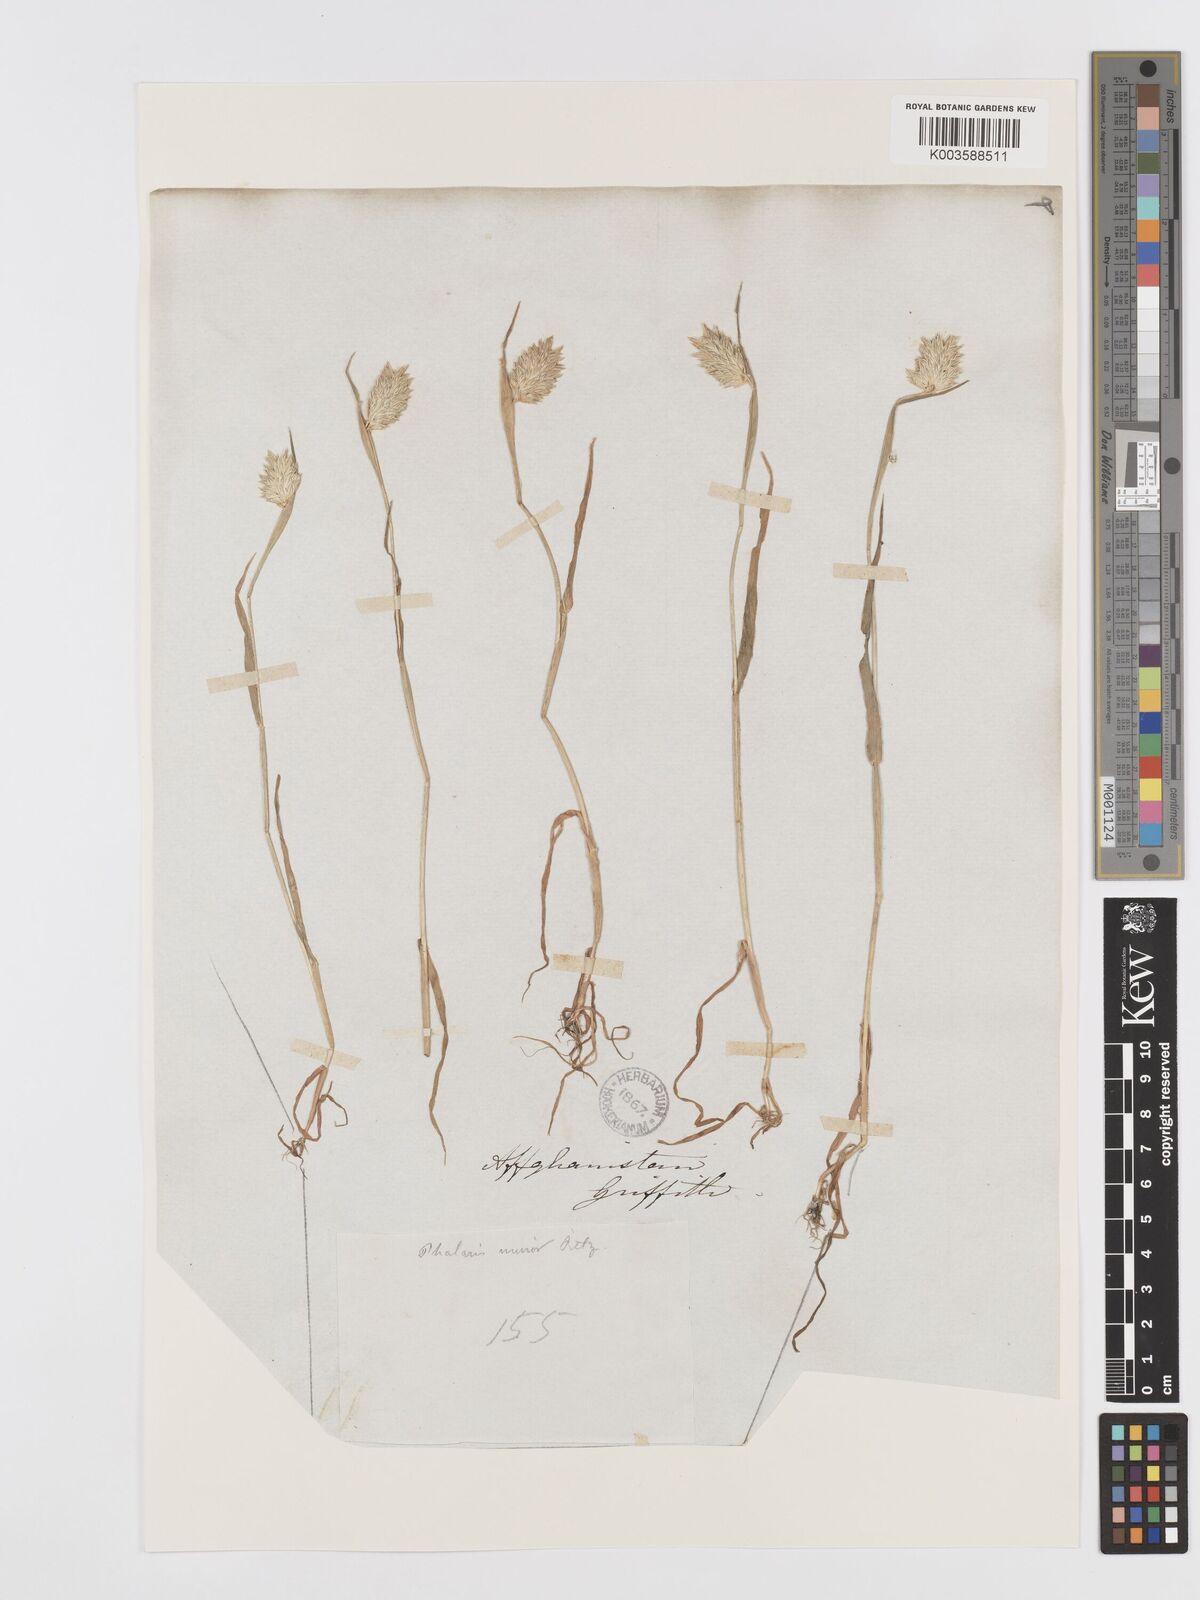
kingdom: Plantae
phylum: Tracheophyta
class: Liliopsida
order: Poales
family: Poaceae
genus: Phalaris
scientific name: Phalaris minor
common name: Littleseed canarygrass
